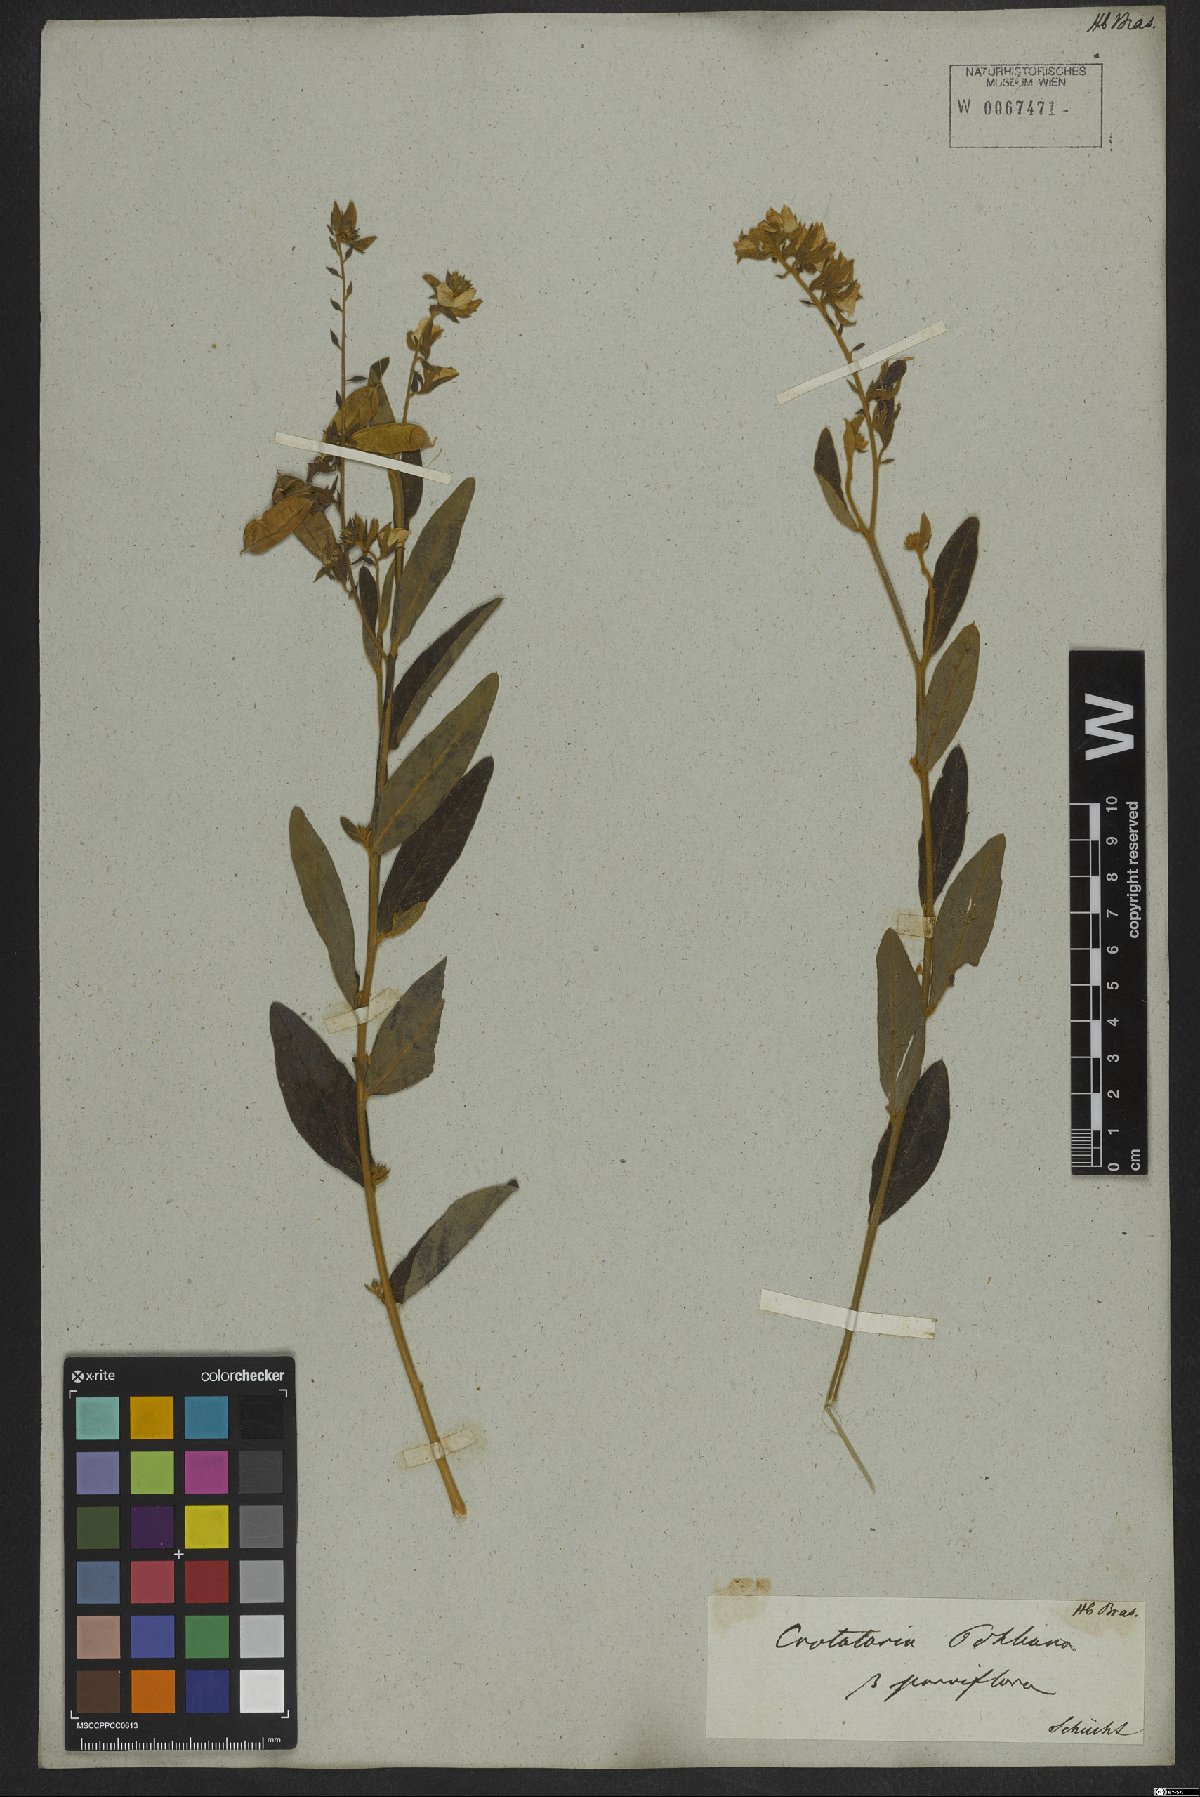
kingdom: Plantae
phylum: Tracheophyta
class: Magnoliopsida
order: Fabales
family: Fabaceae
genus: Crotalaria
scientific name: Crotalaria breviflora
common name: Short-flower crotalaria
